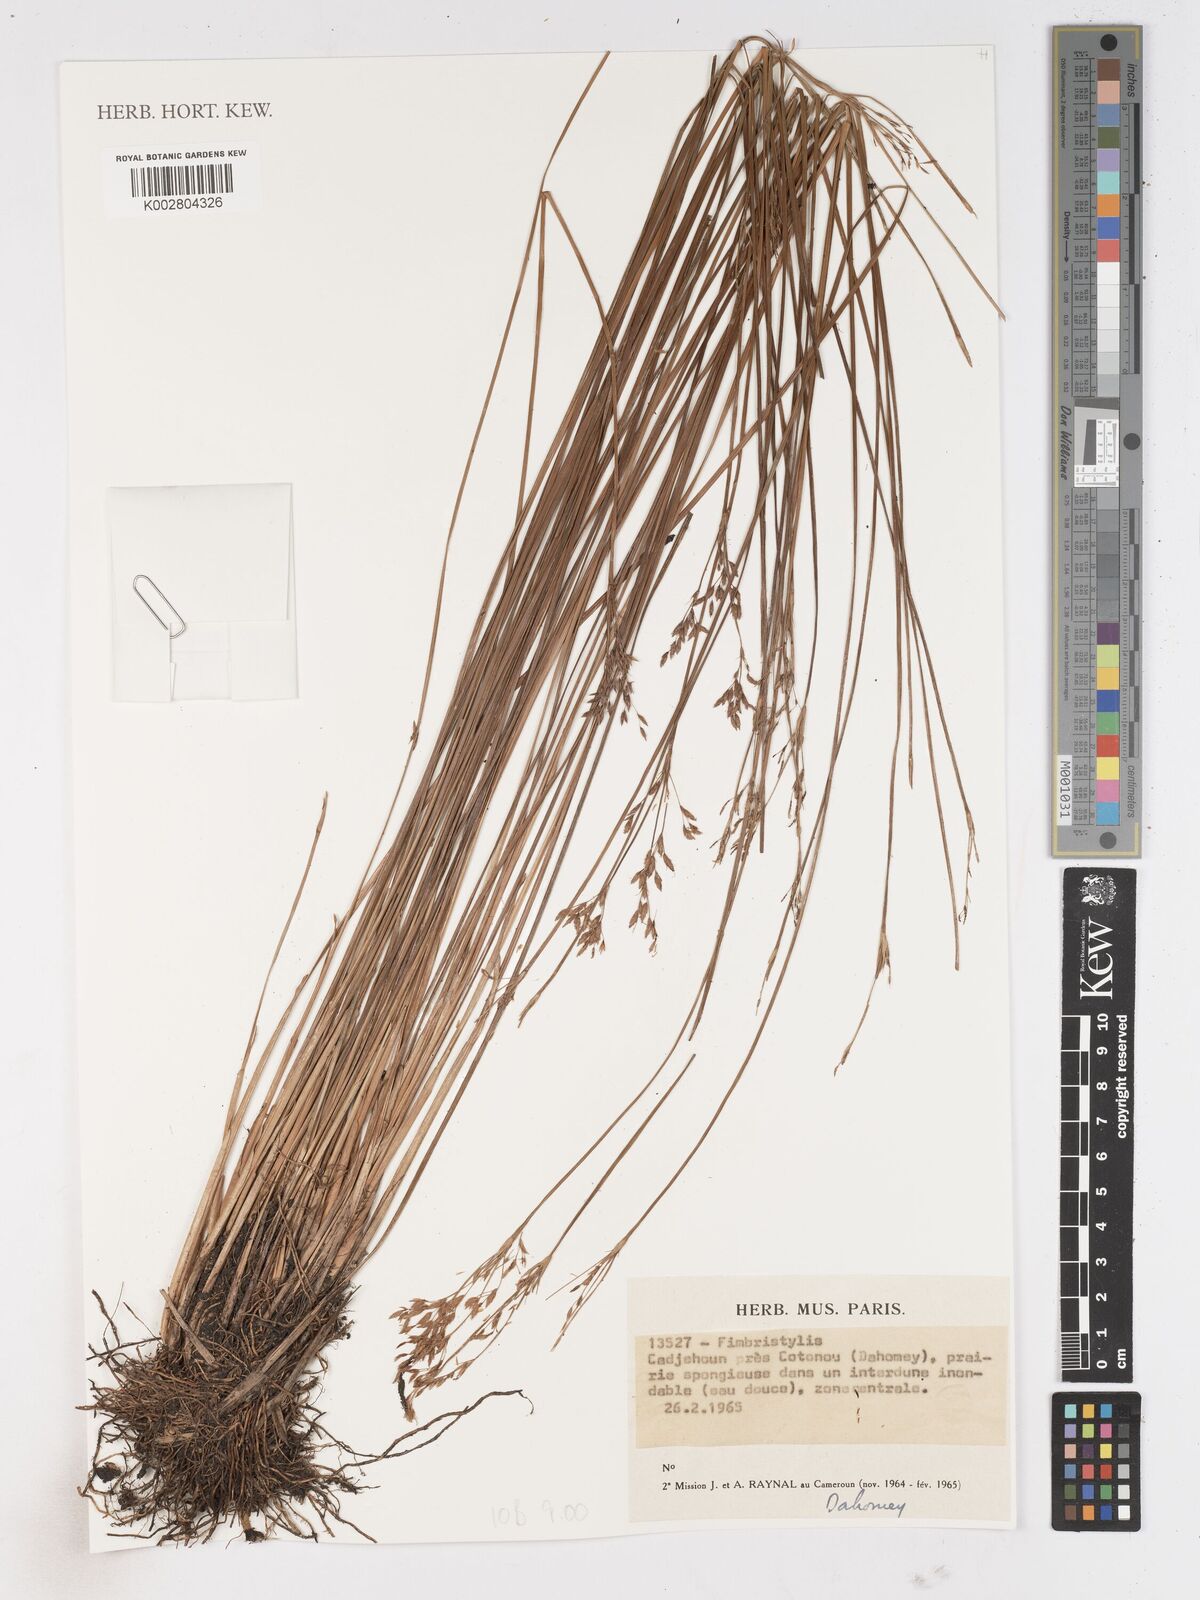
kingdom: Plantae
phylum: Tracheophyta
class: Liliopsida
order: Poales
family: Cyperaceae
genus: Fimbristylis
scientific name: Fimbristylis
